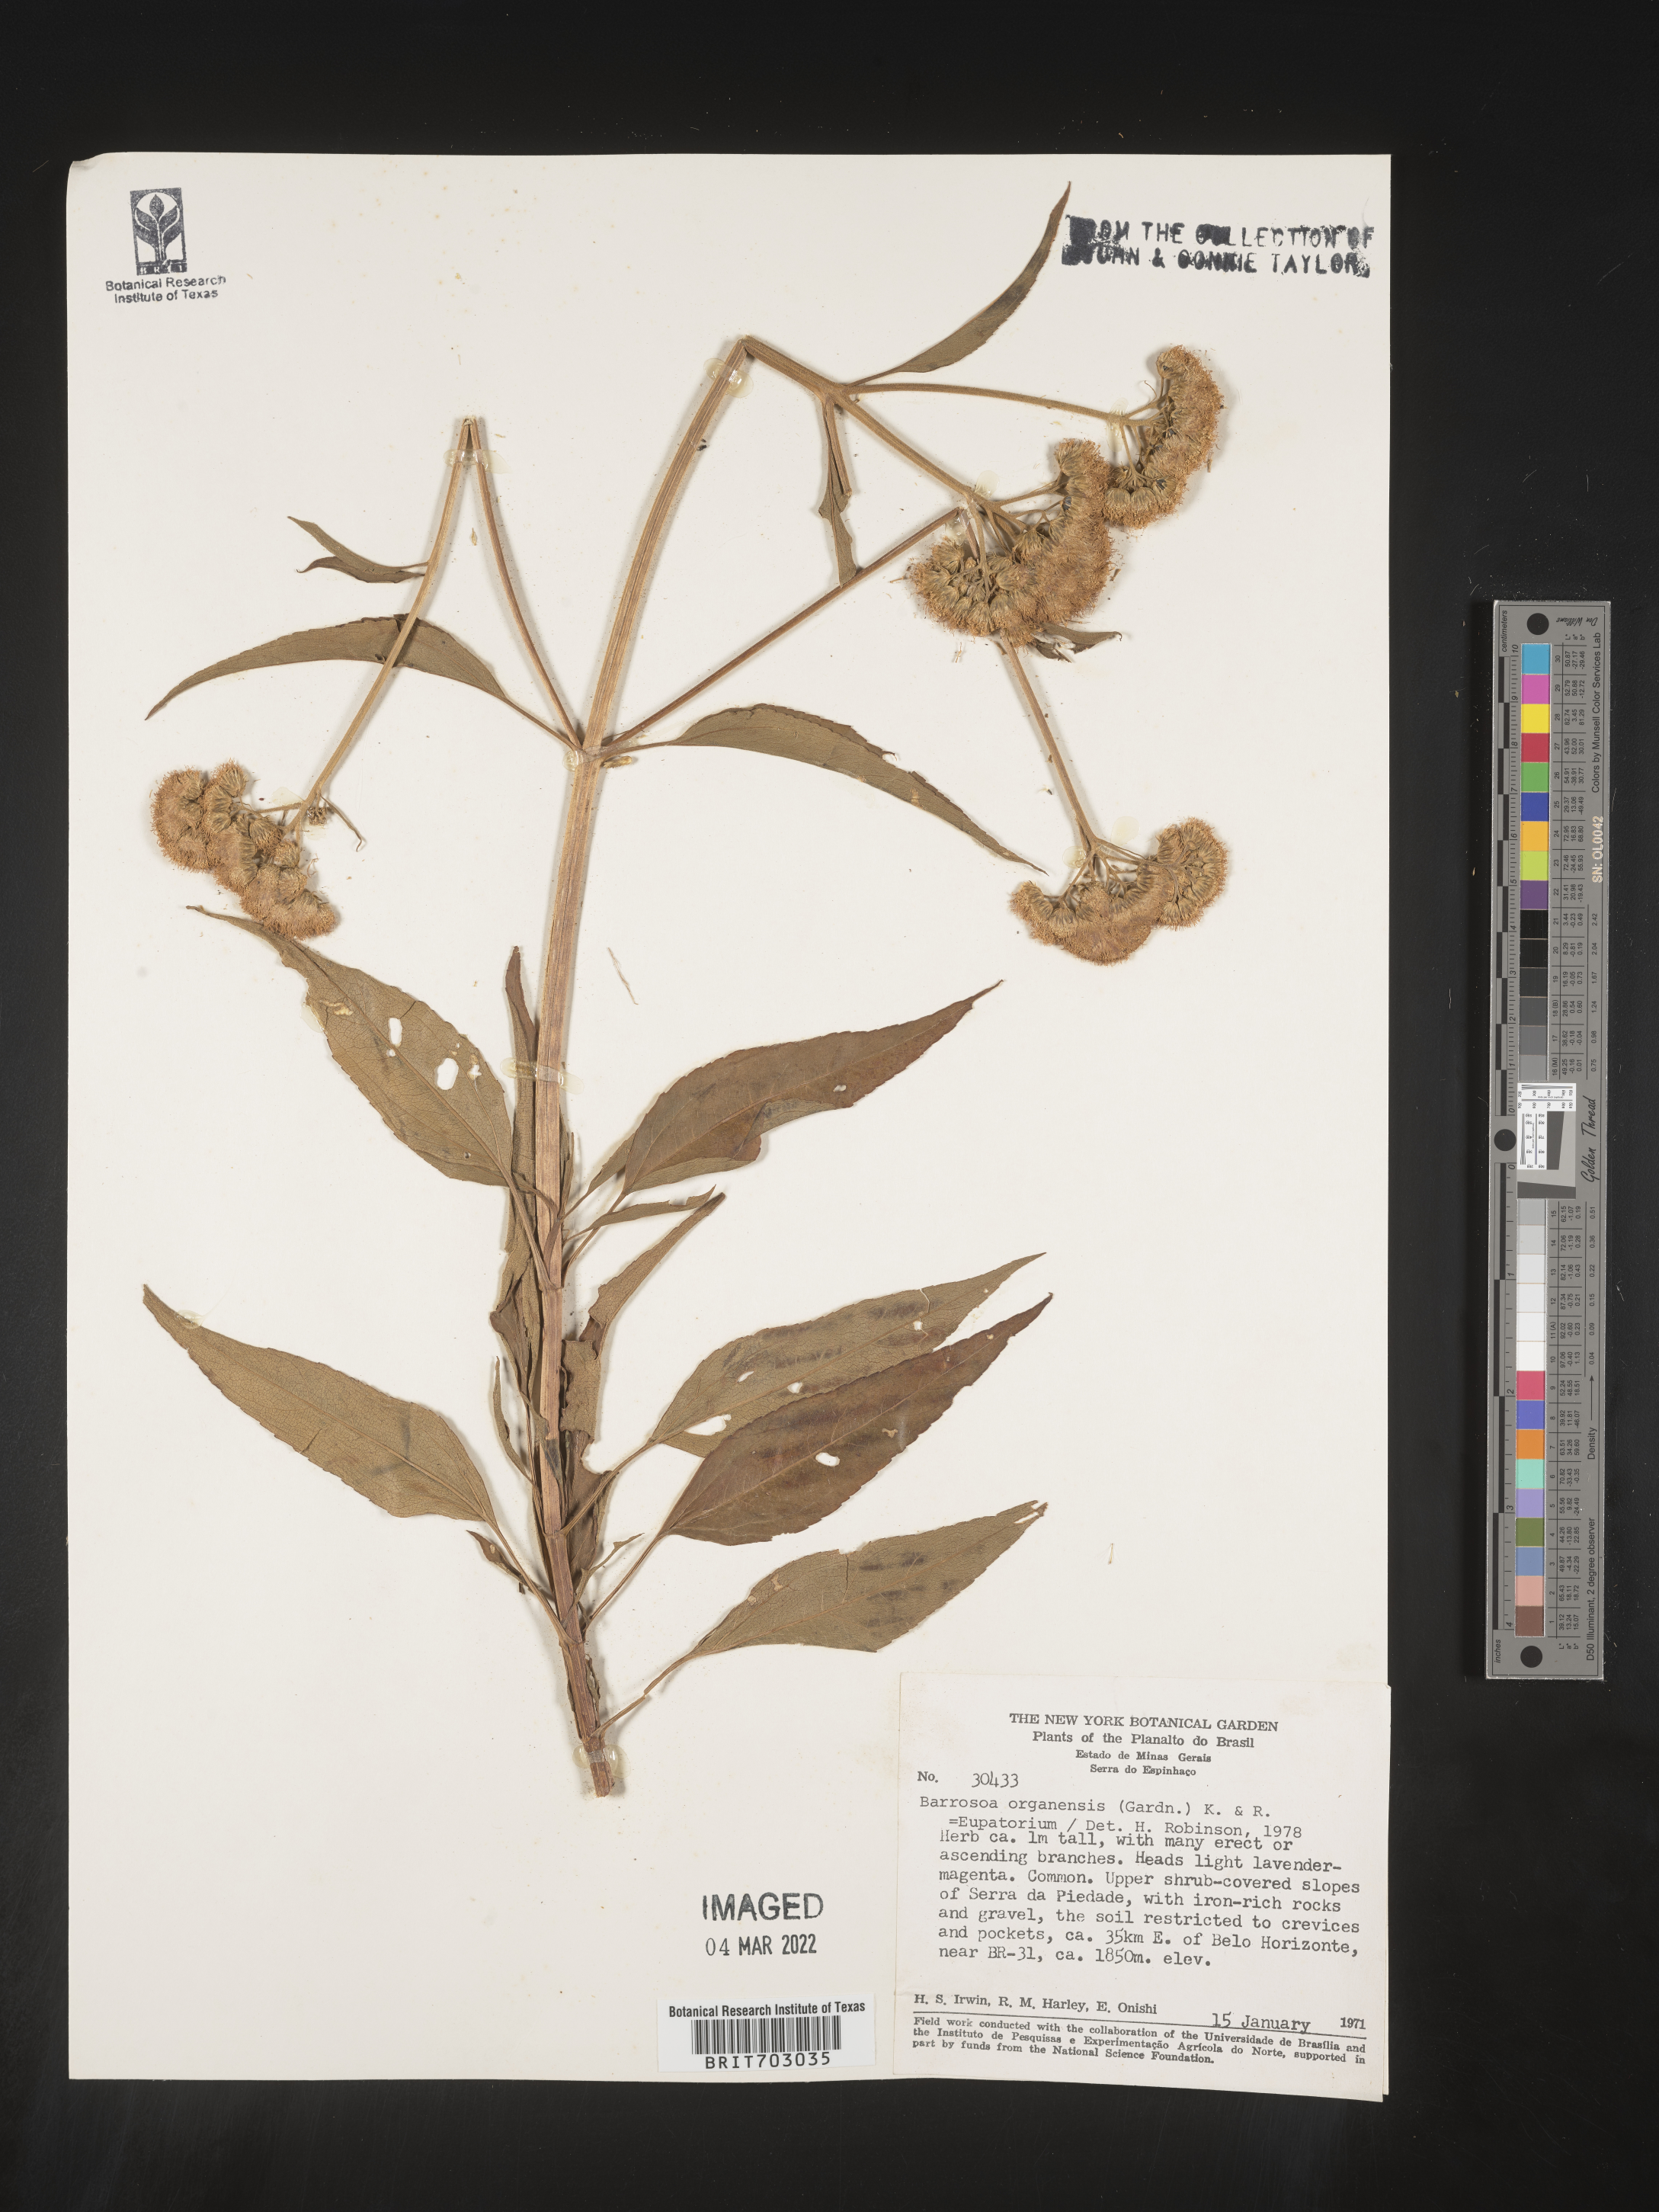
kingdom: Plantae
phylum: Tracheophyta
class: Magnoliopsida
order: Asterales
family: Asteraceae
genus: Eupatorium
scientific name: Eupatorium
